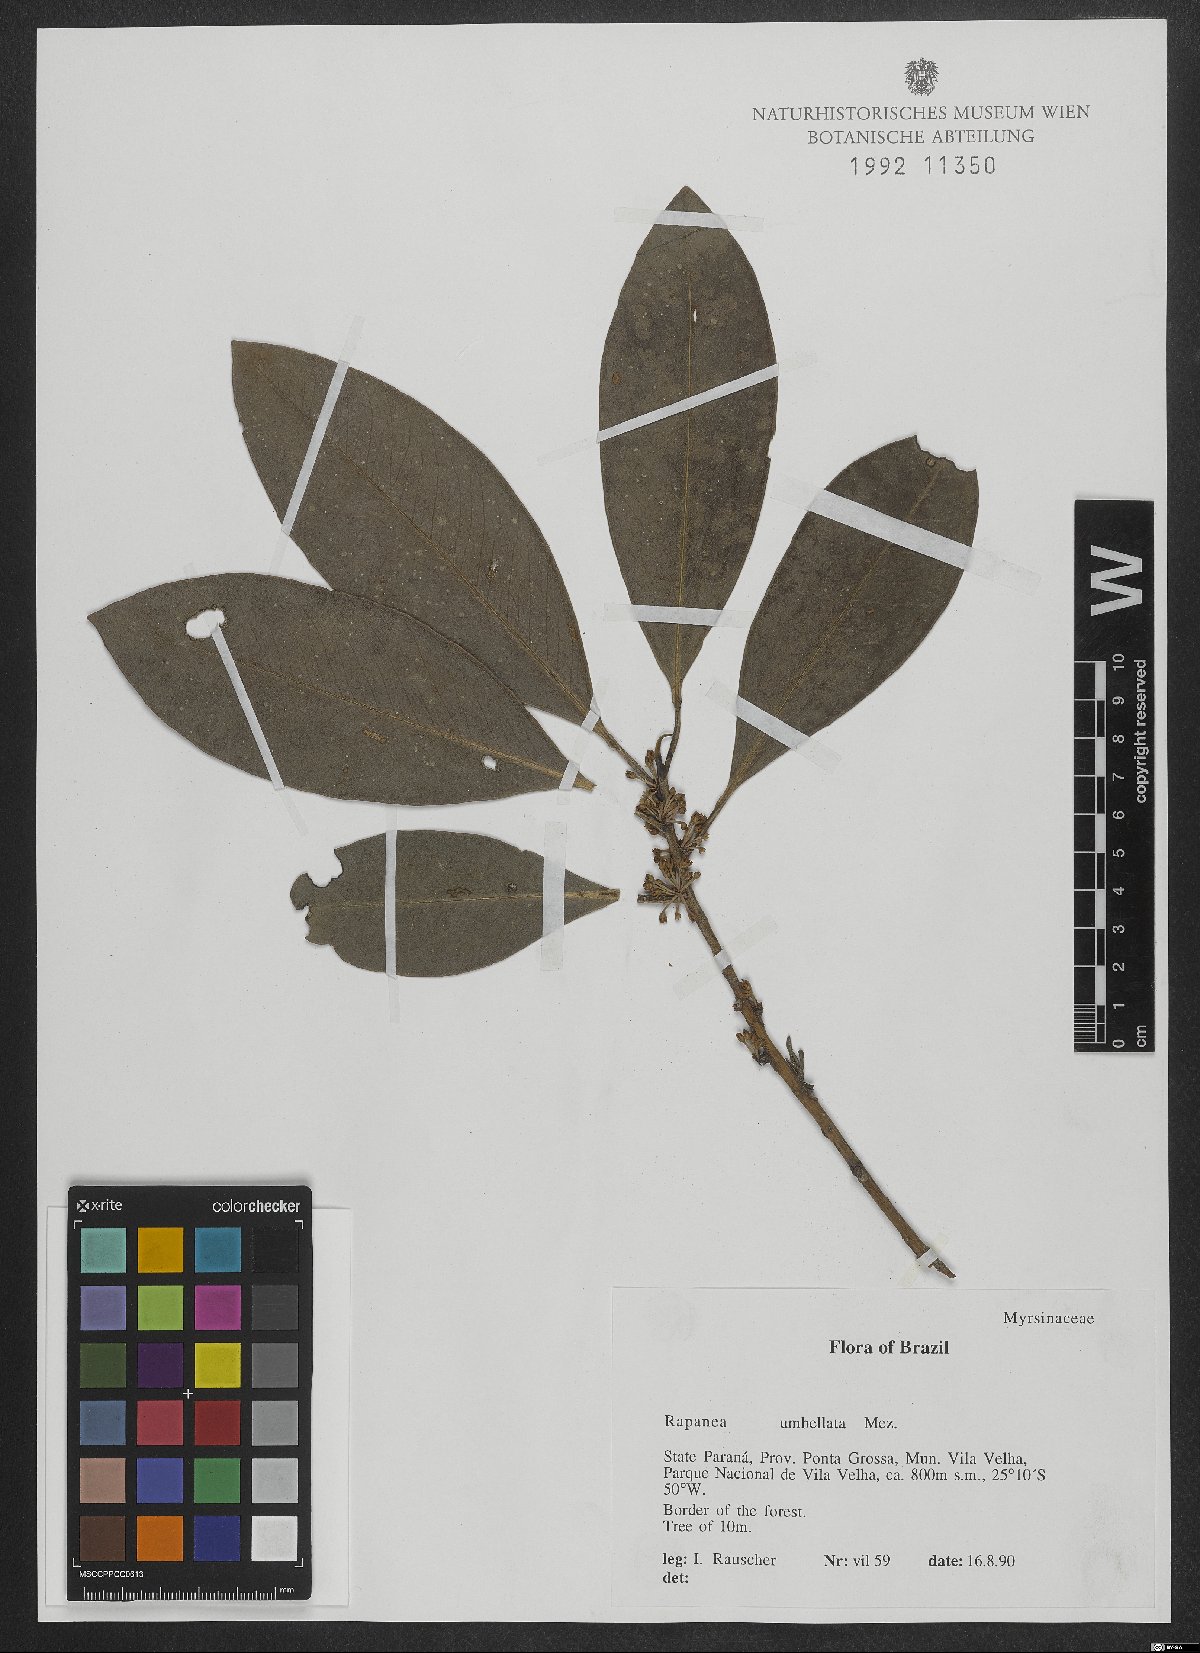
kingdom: Plantae
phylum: Tracheophyta
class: Magnoliopsida
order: Ericales
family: Primulaceae
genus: Myrsine
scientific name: Myrsine umbellata
